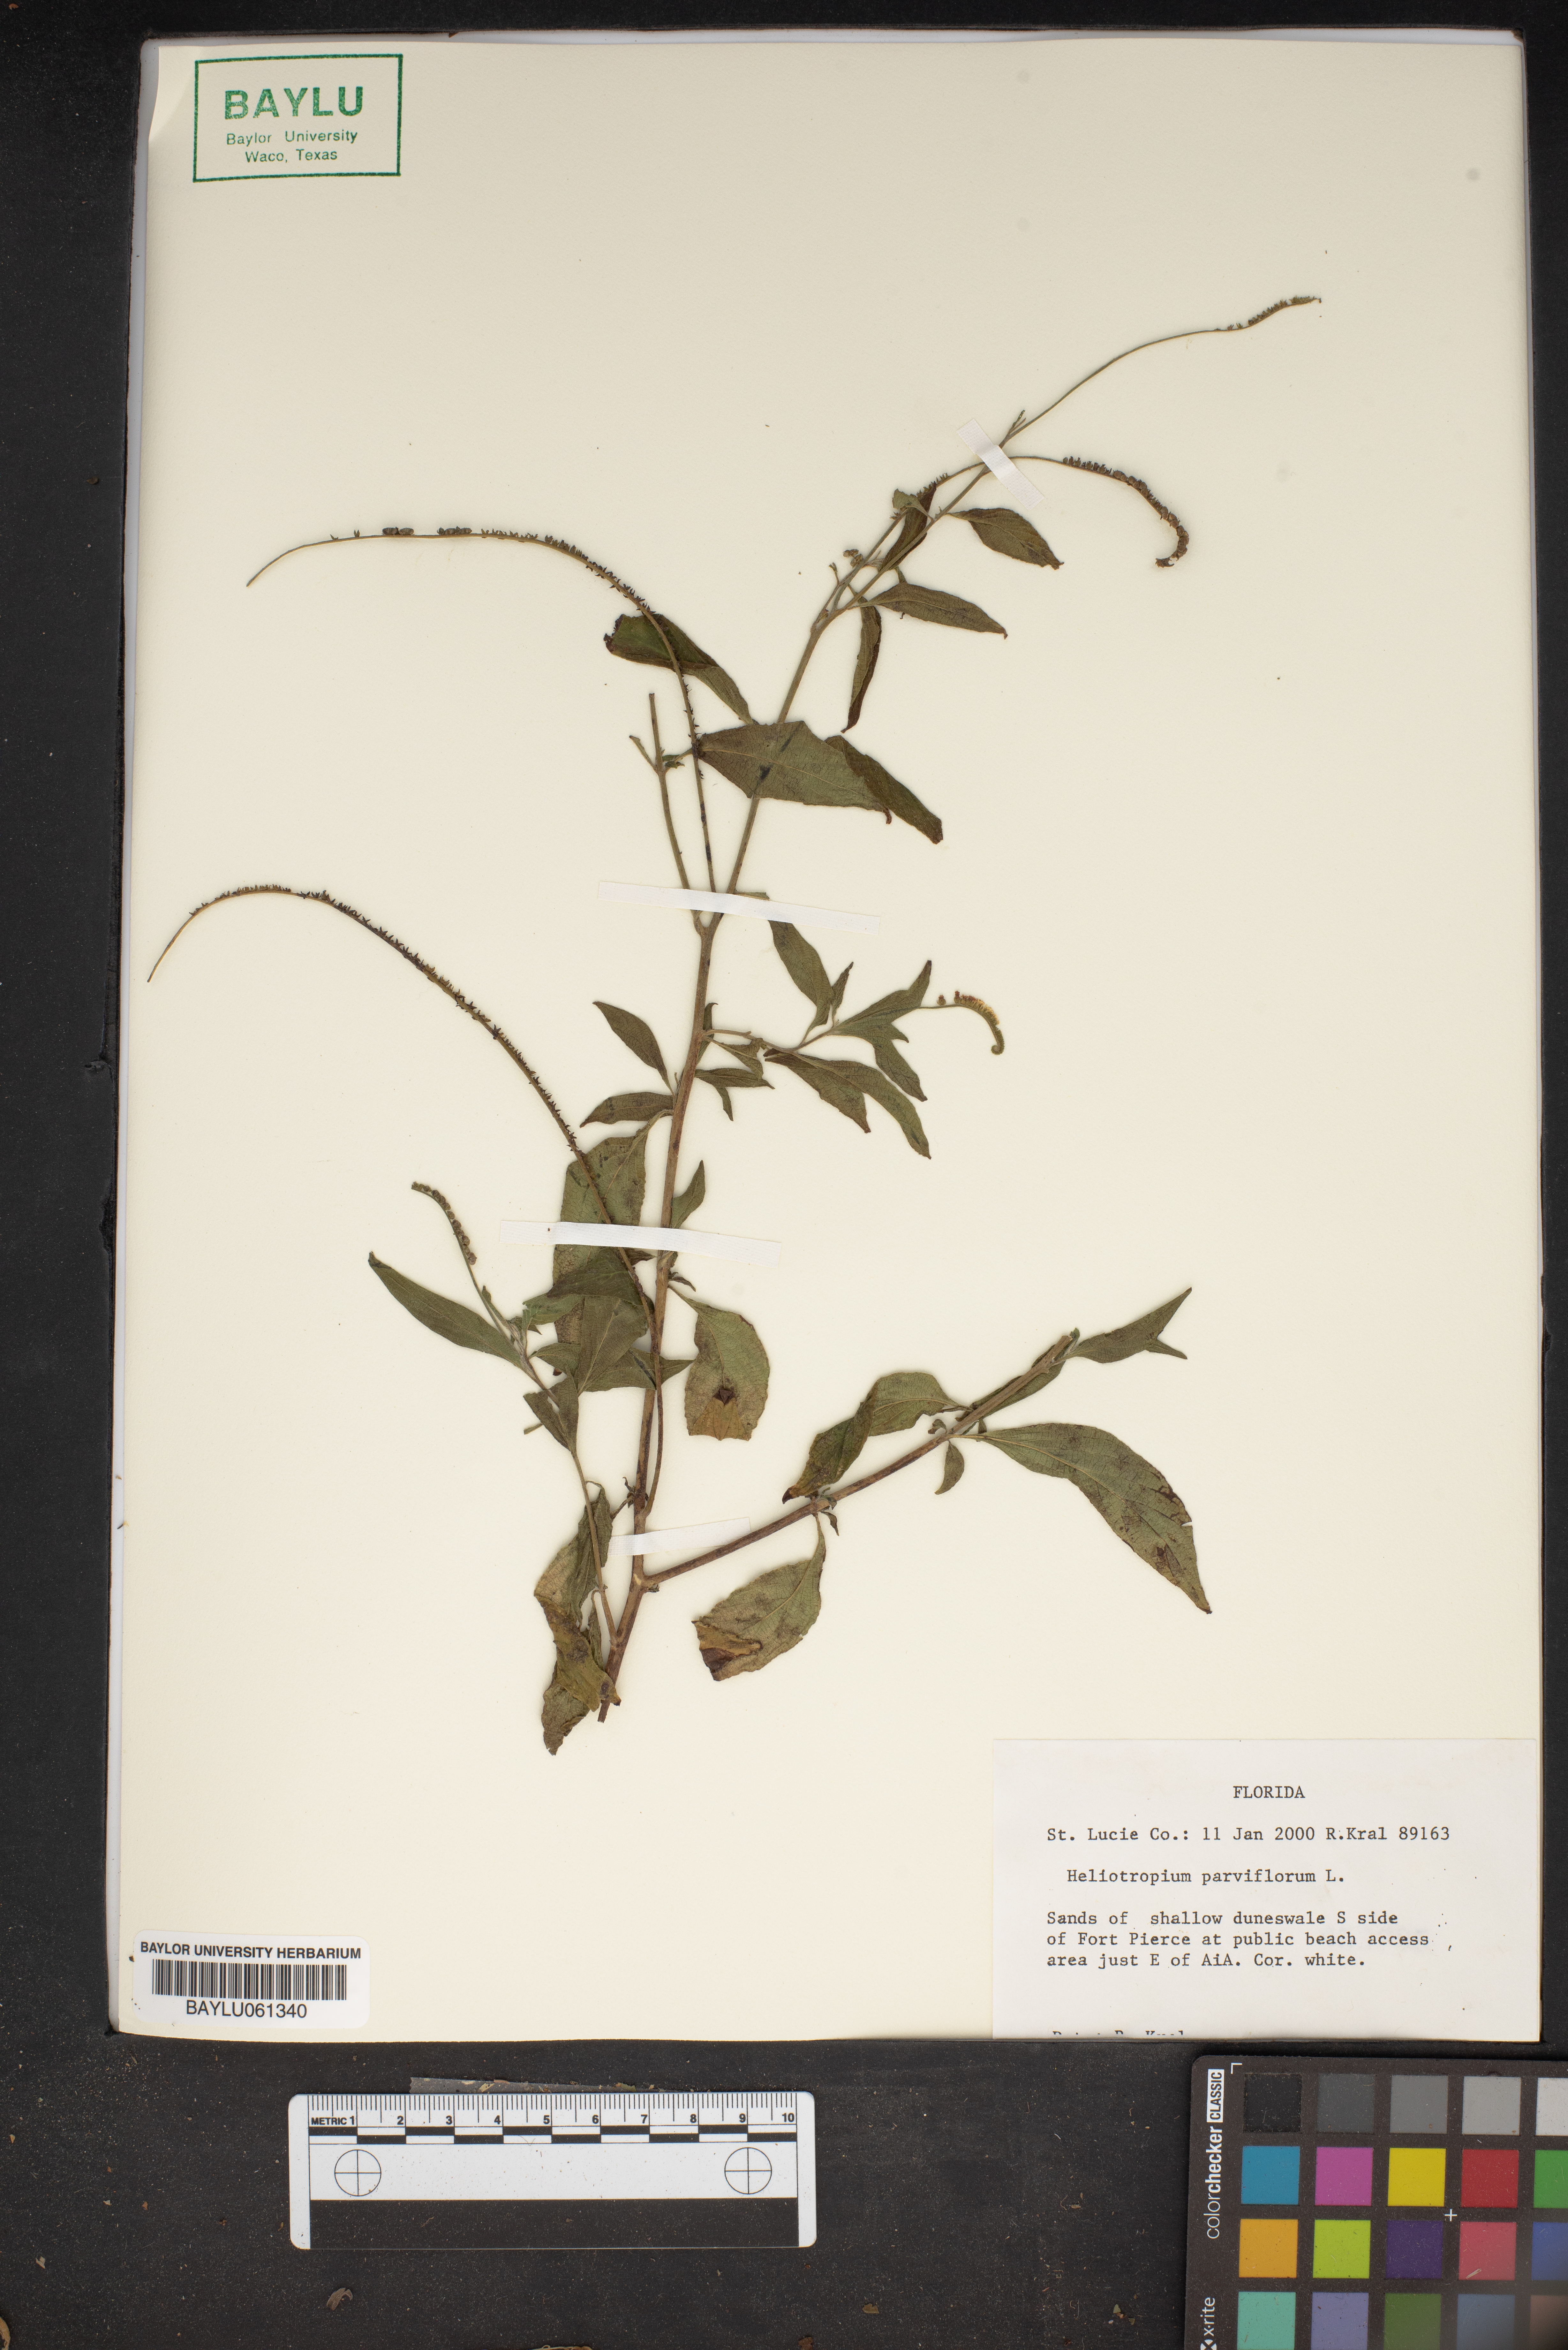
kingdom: Plantae
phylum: Tracheophyta
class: Magnoliopsida
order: Boraginales
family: Heliotropiaceae
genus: Heliotropium
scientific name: Heliotropium angiospermum
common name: Eye bright
